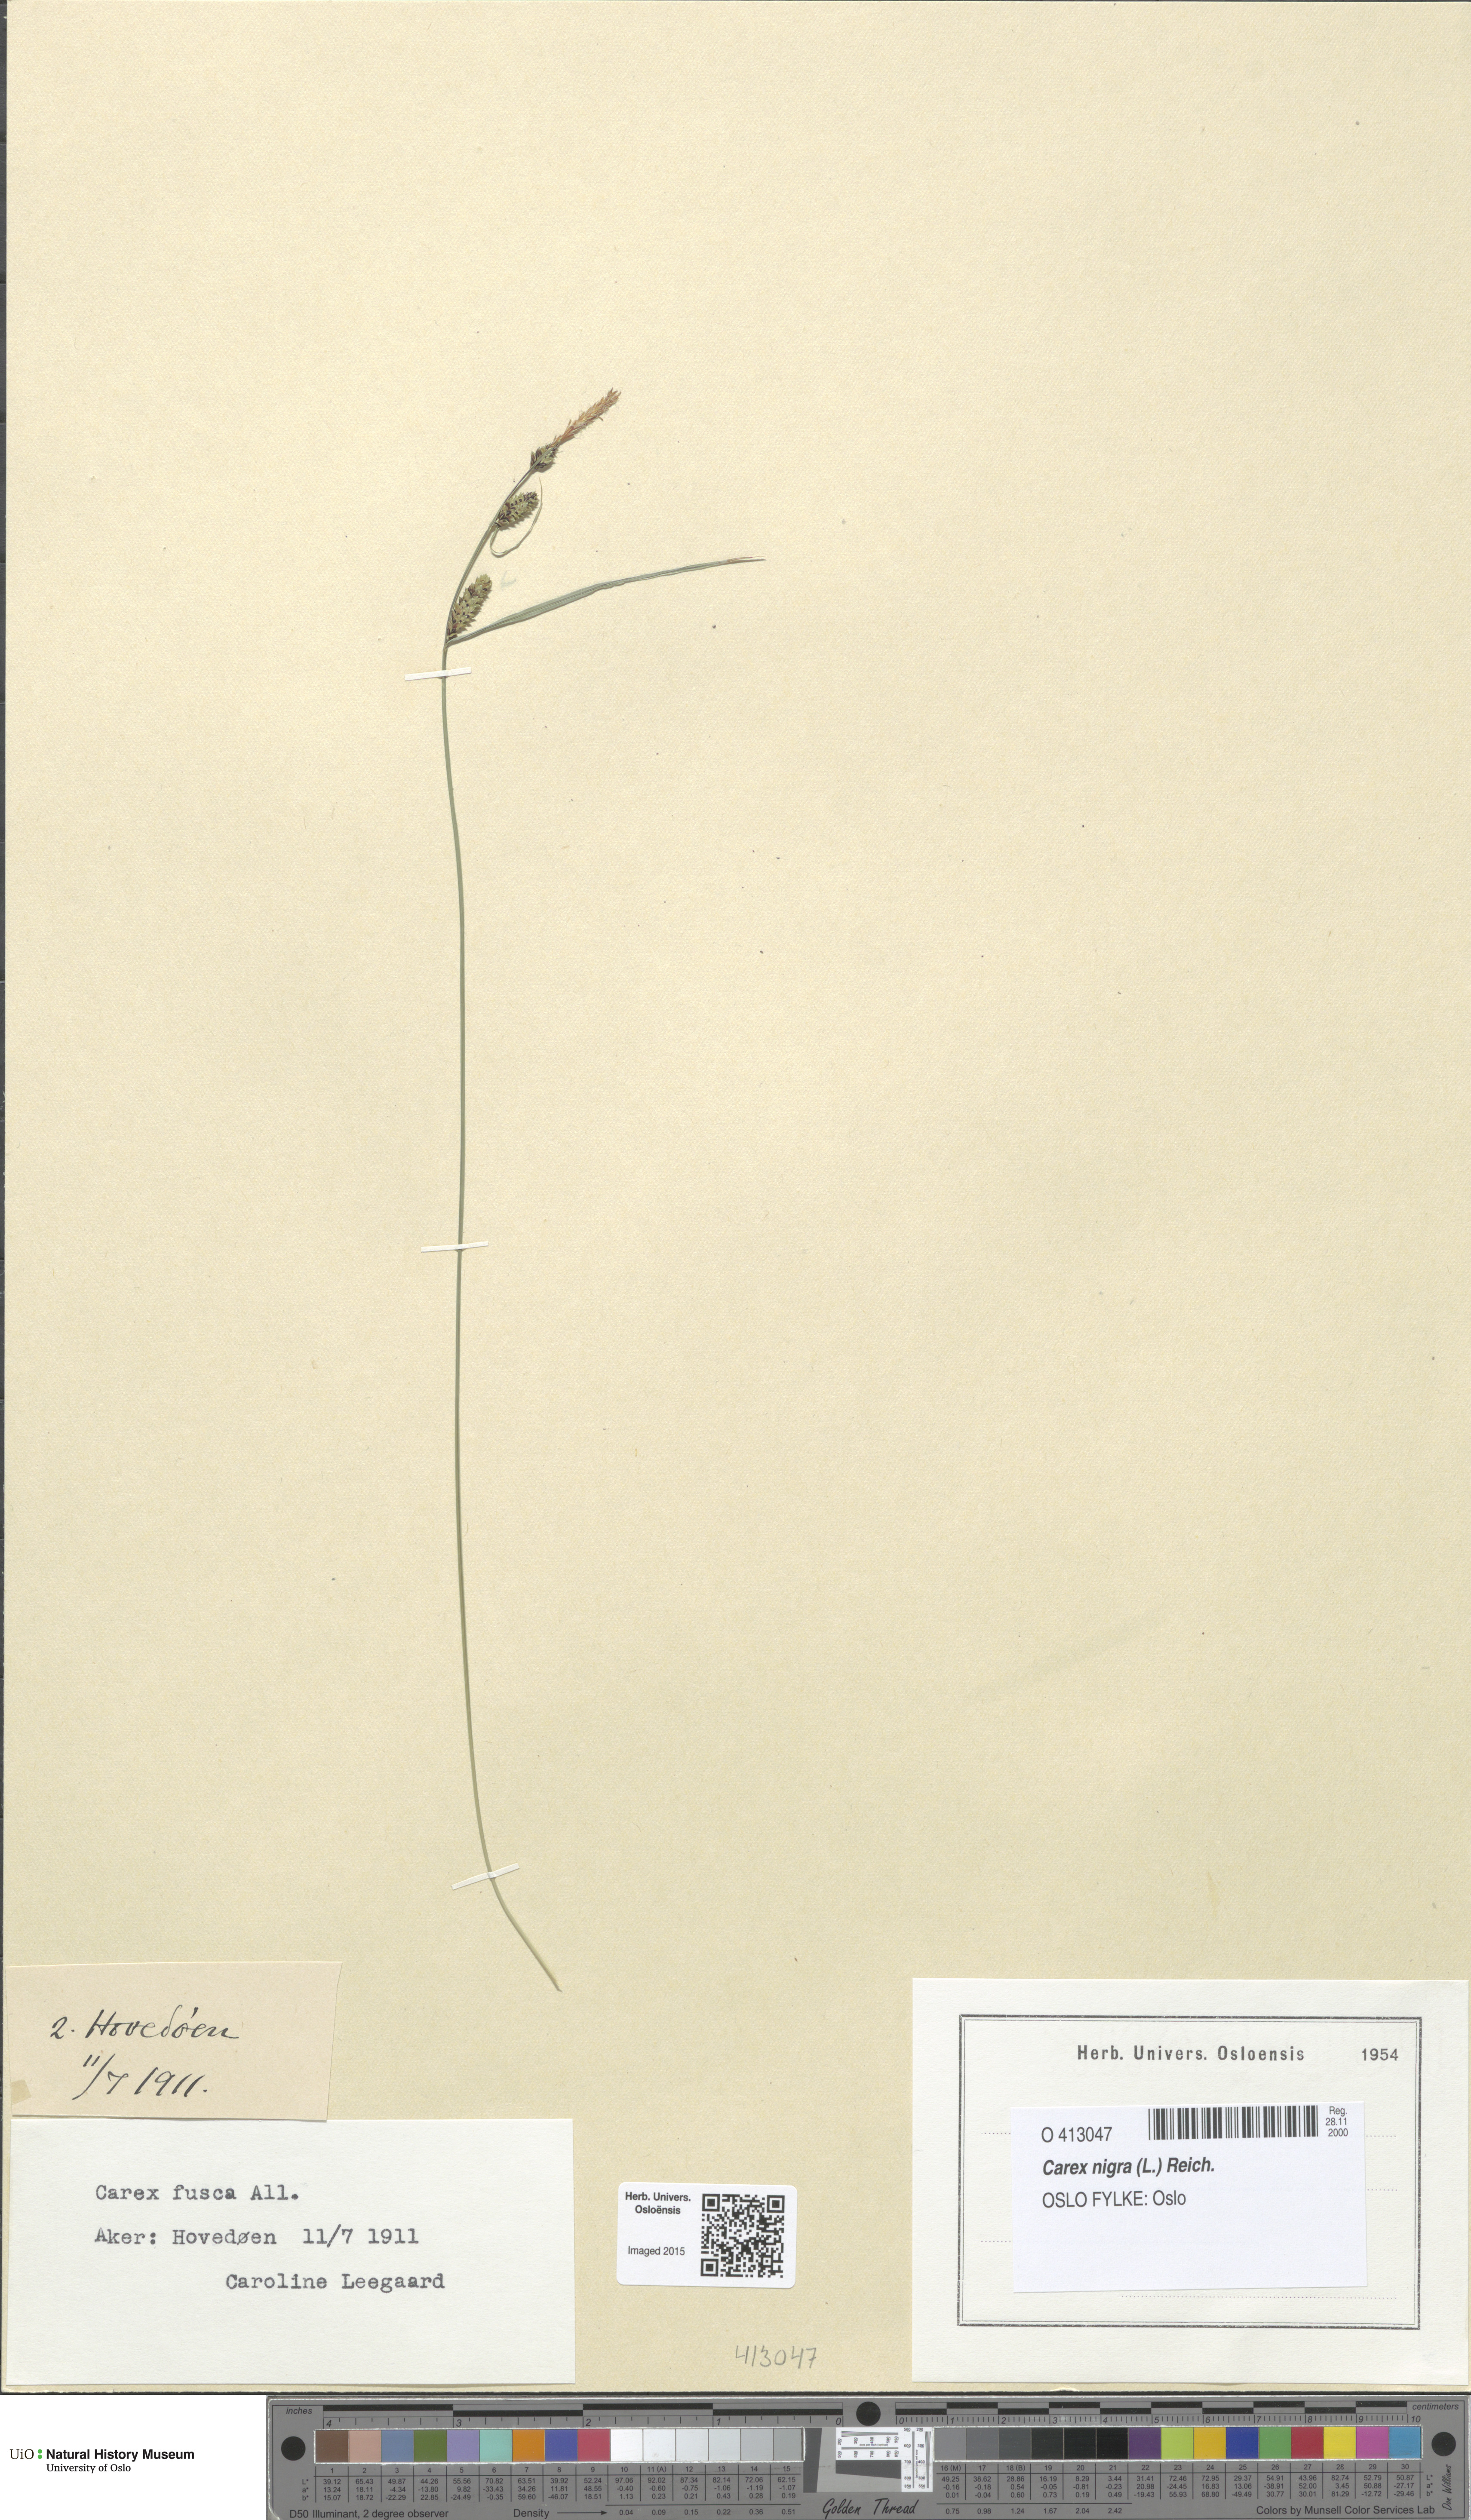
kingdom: Plantae
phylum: Tracheophyta
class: Liliopsida
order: Poales
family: Cyperaceae
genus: Carex
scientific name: Carex nigra
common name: Common sedge
